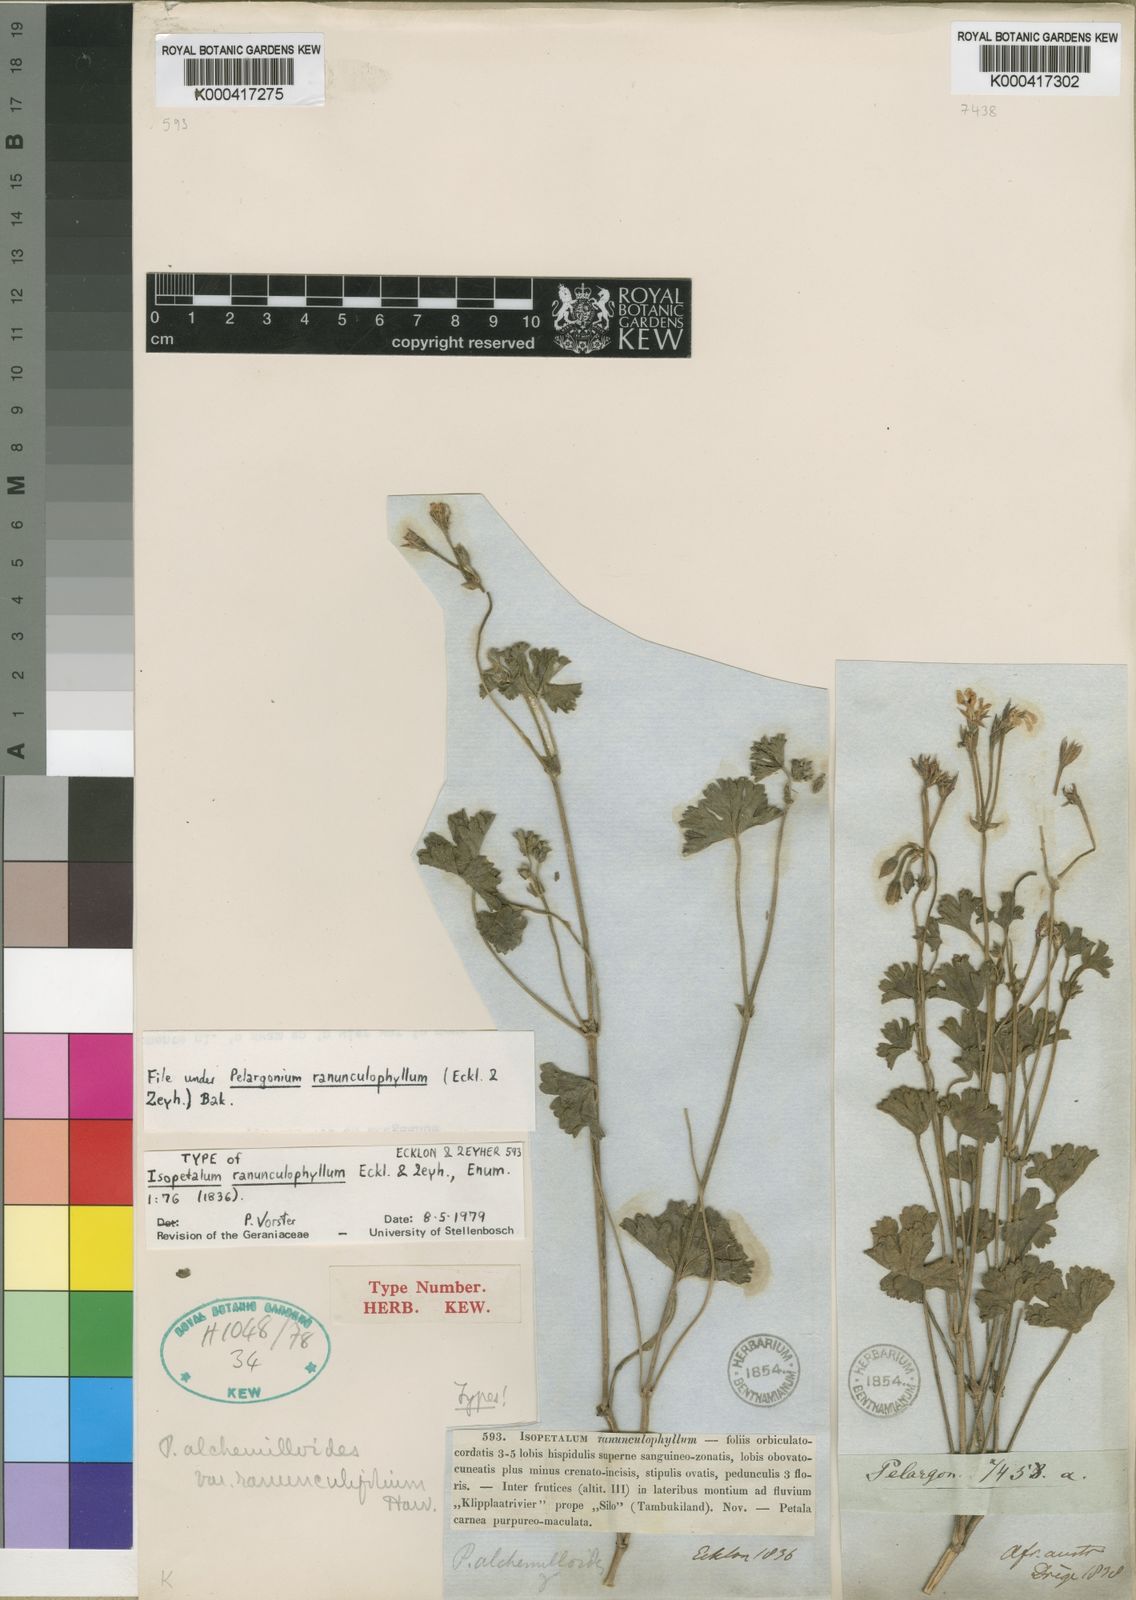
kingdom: Plantae
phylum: Tracheophyta
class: Magnoliopsida
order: Geraniales
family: Geraniaceae
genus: Pelargonium
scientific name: Pelargonium ranunculophyllum
